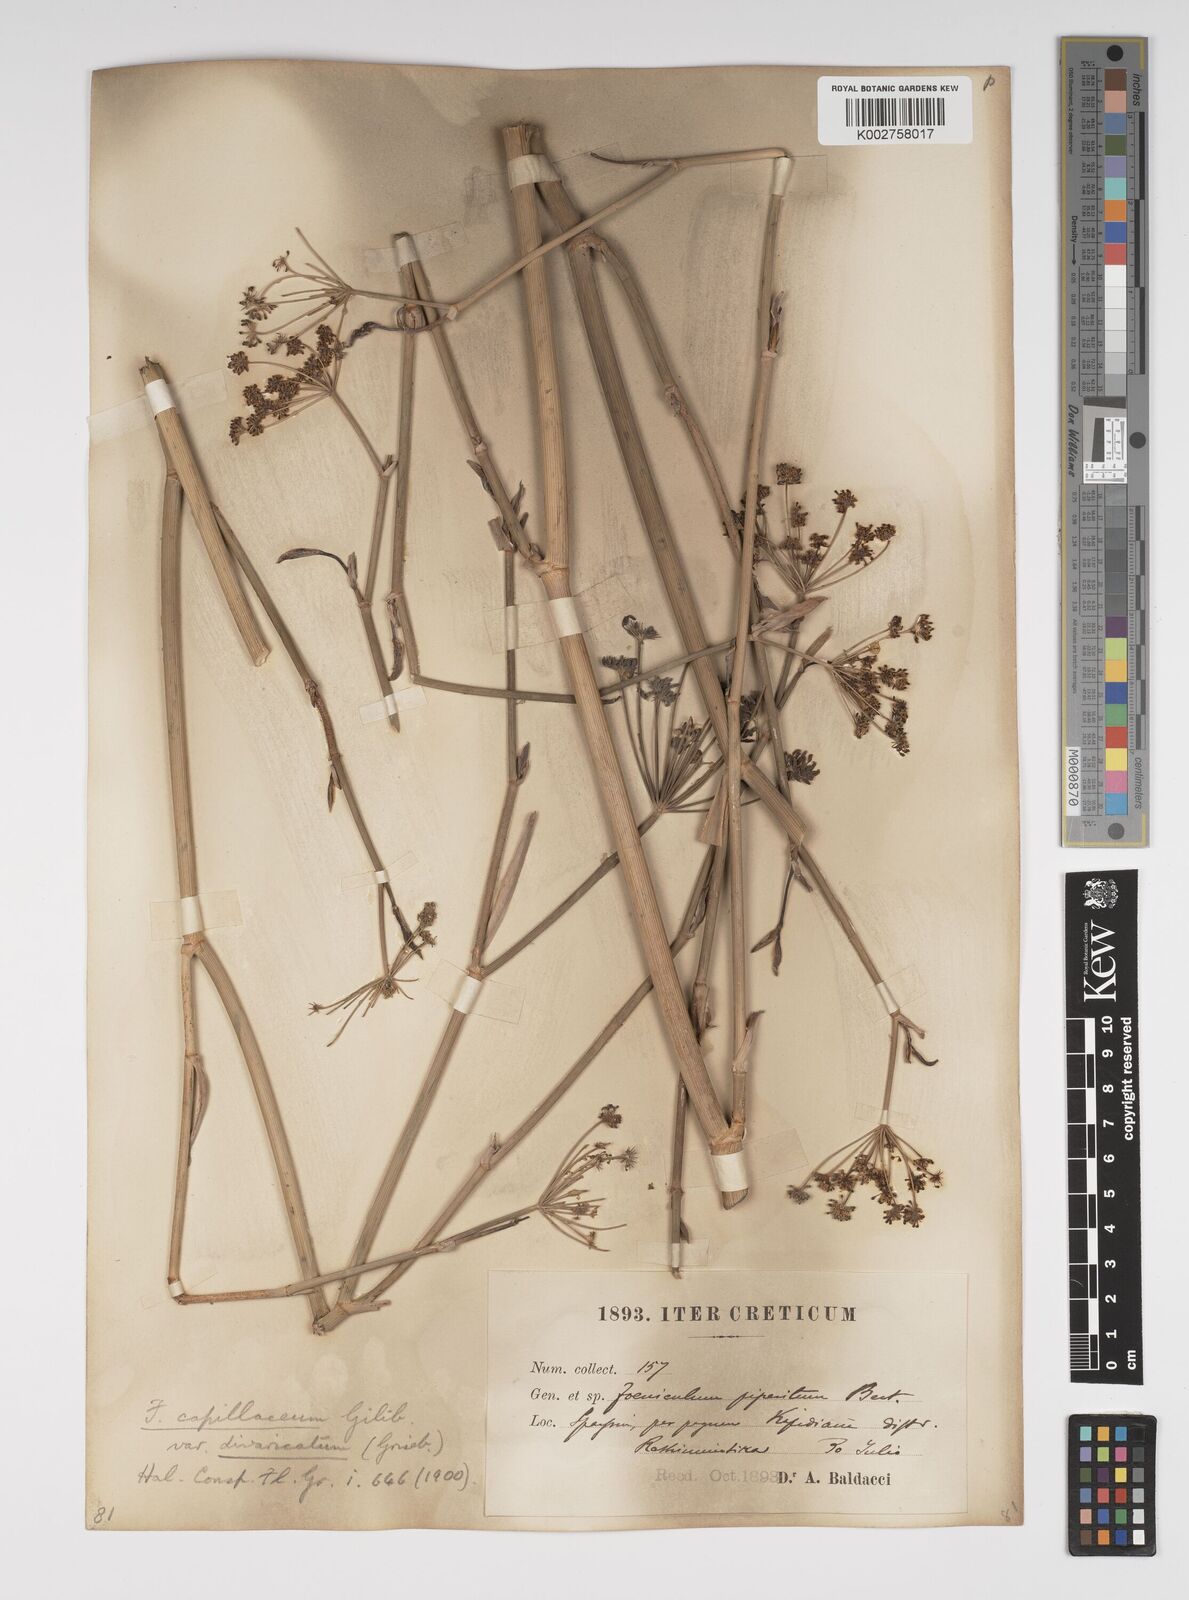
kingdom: Plantae
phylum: Tracheophyta
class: Magnoliopsida
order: Apiales
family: Apiaceae
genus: Foeniculum
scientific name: Foeniculum vulgare
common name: Fennel
